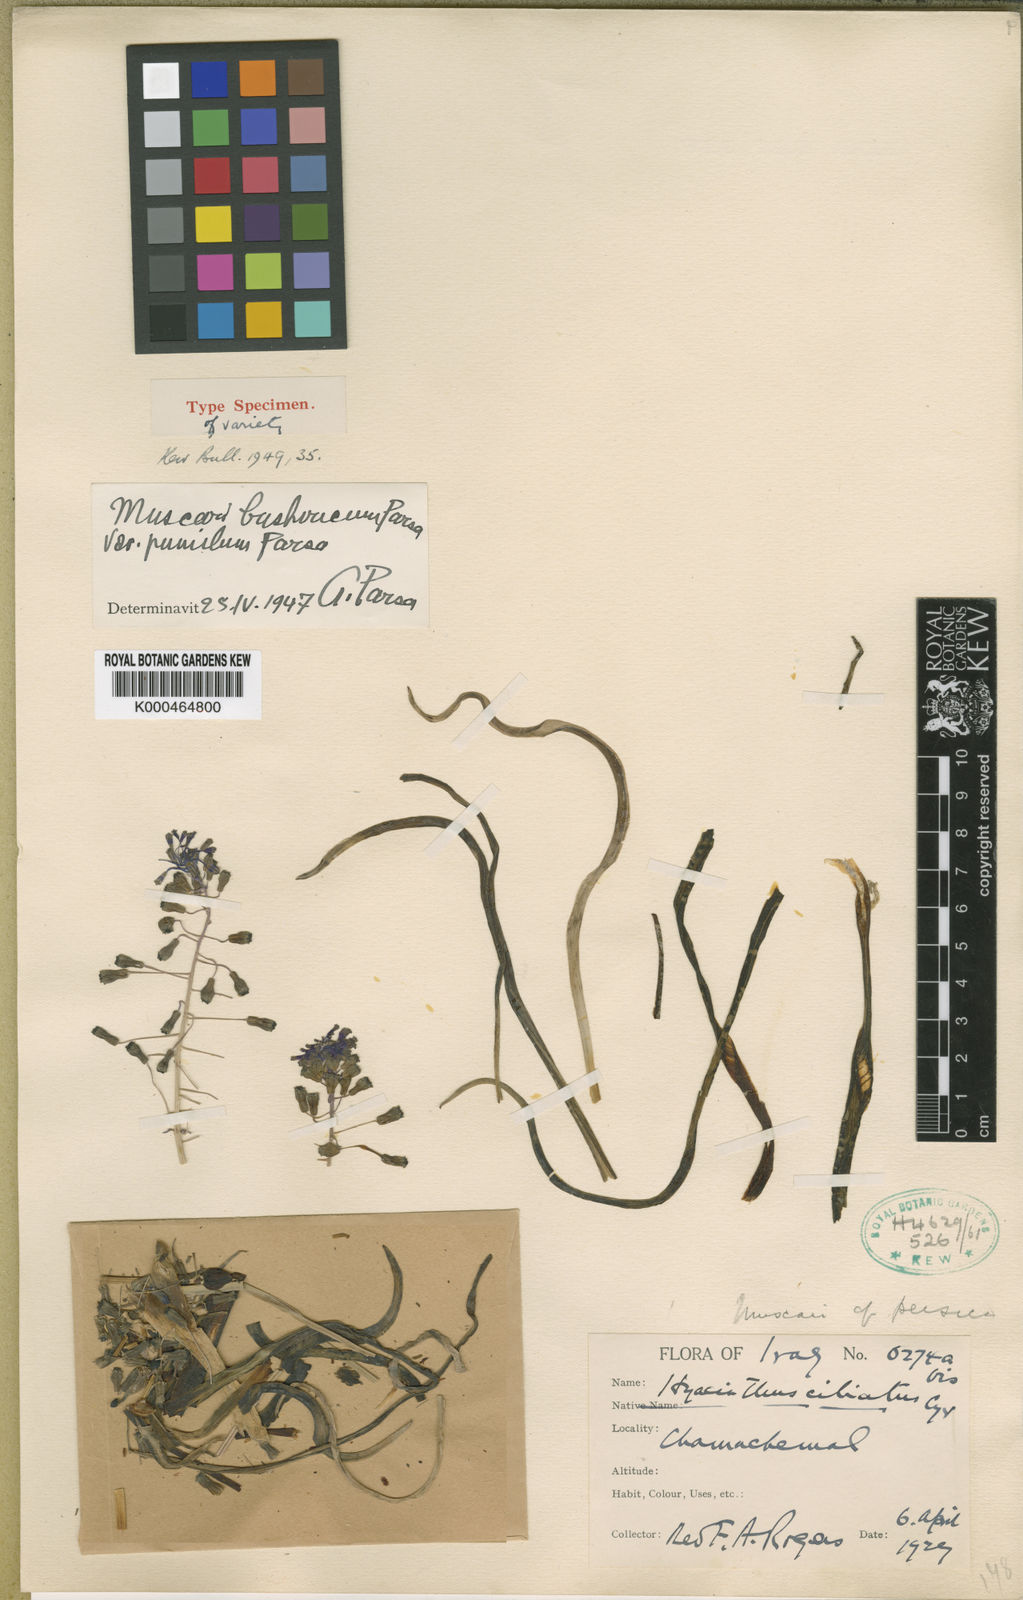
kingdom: Animalia
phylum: Mollusca
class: Cephalopoda
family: Neocomitidae
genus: Leopoldia
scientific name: Leopoldia
